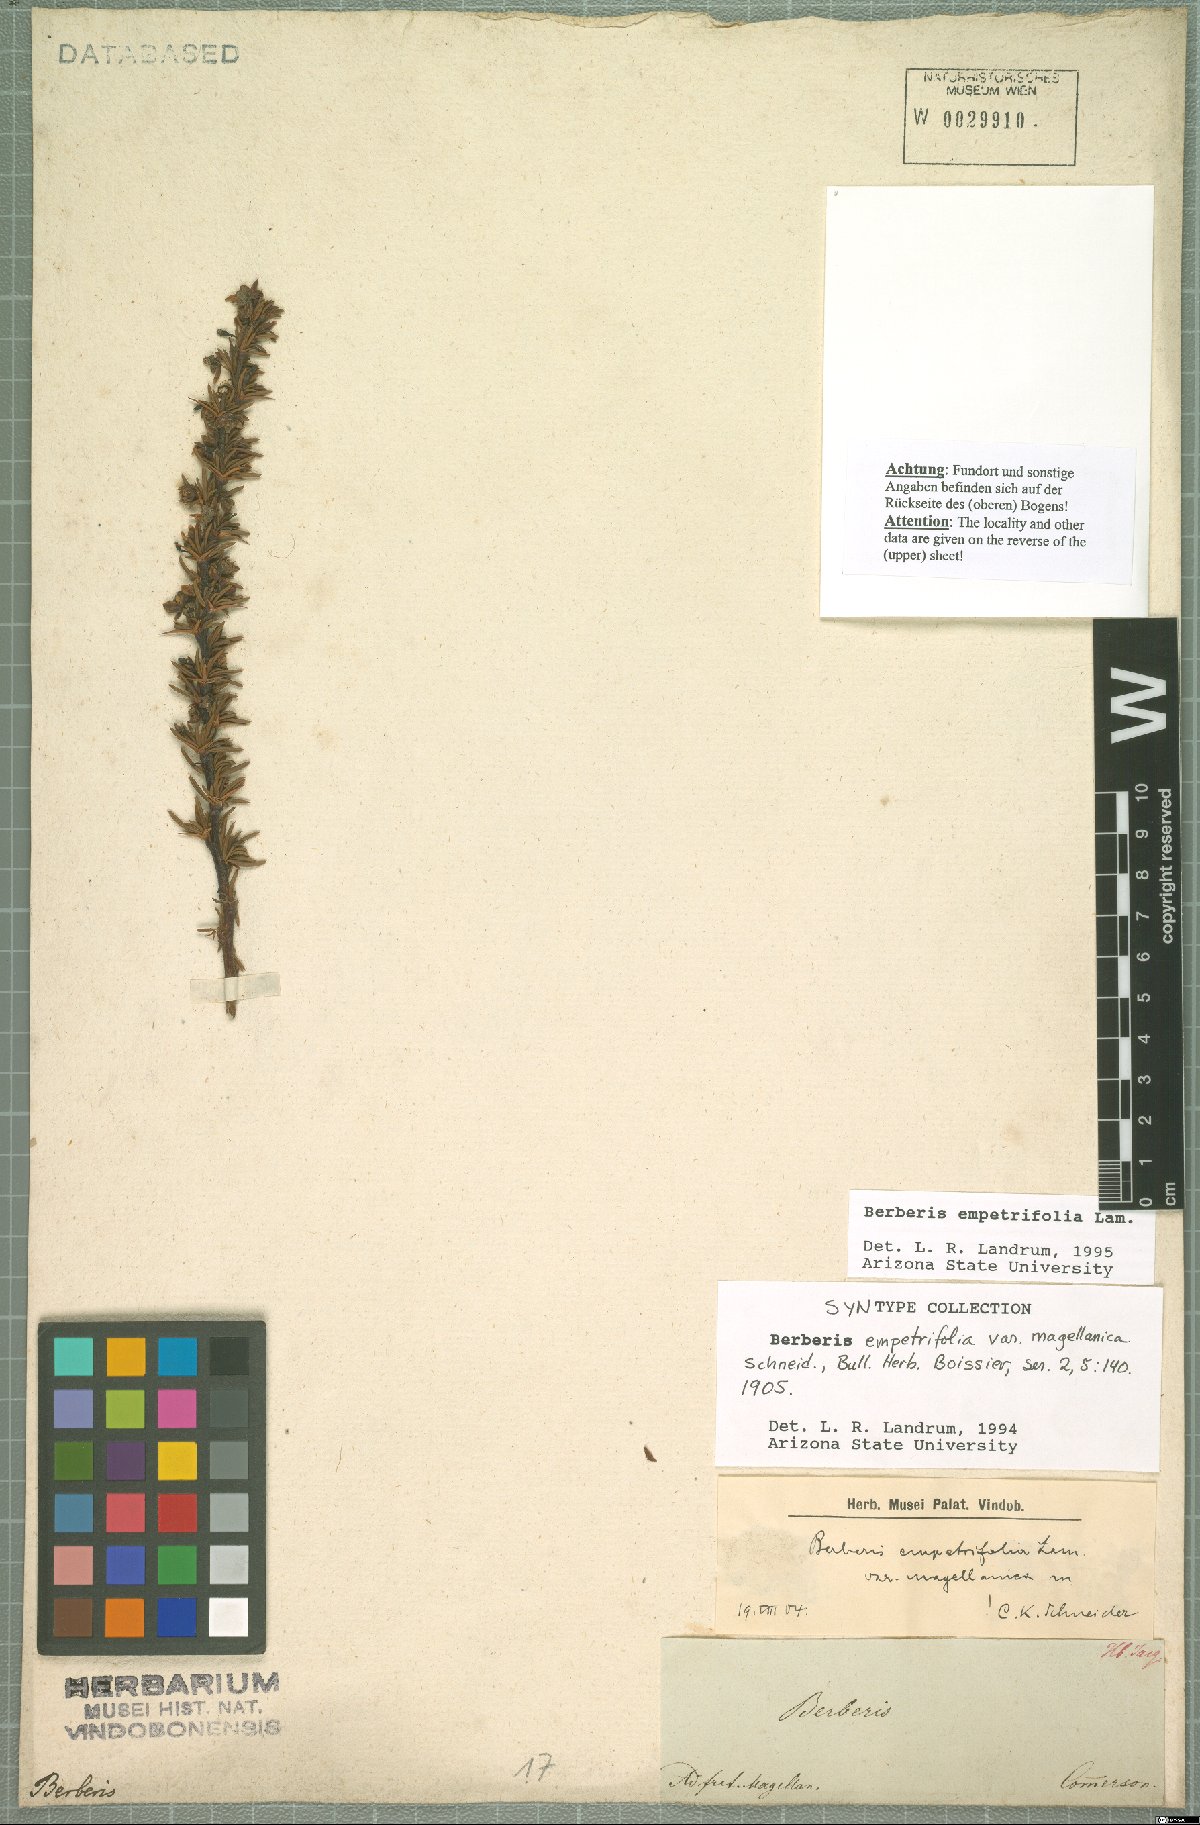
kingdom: Plantae
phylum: Tracheophyta
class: Magnoliopsida
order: Ranunculales
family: Berberidaceae
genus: Berberis
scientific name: Berberis empetrifolia
